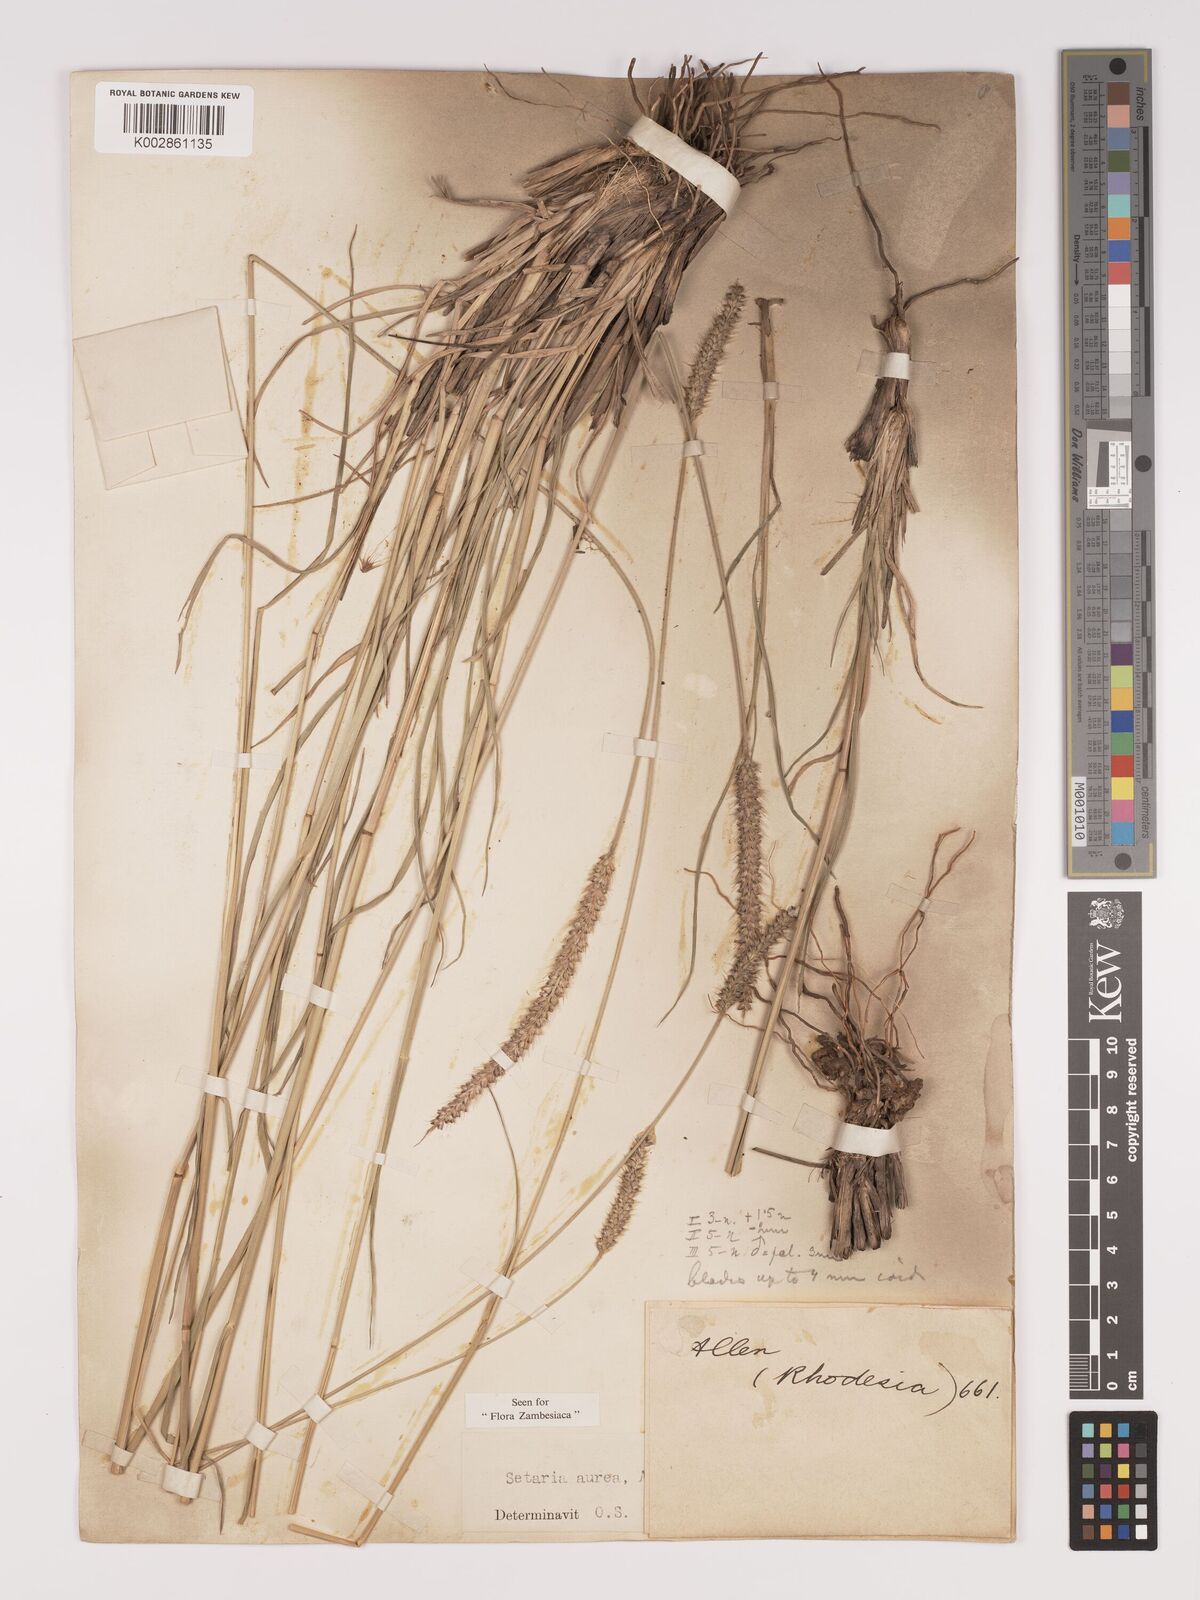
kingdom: Plantae
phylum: Tracheophyta
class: Liliopsida
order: Poales
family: Poaceae
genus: Setaria
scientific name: Setaria sphacelata
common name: African bristlegrass
